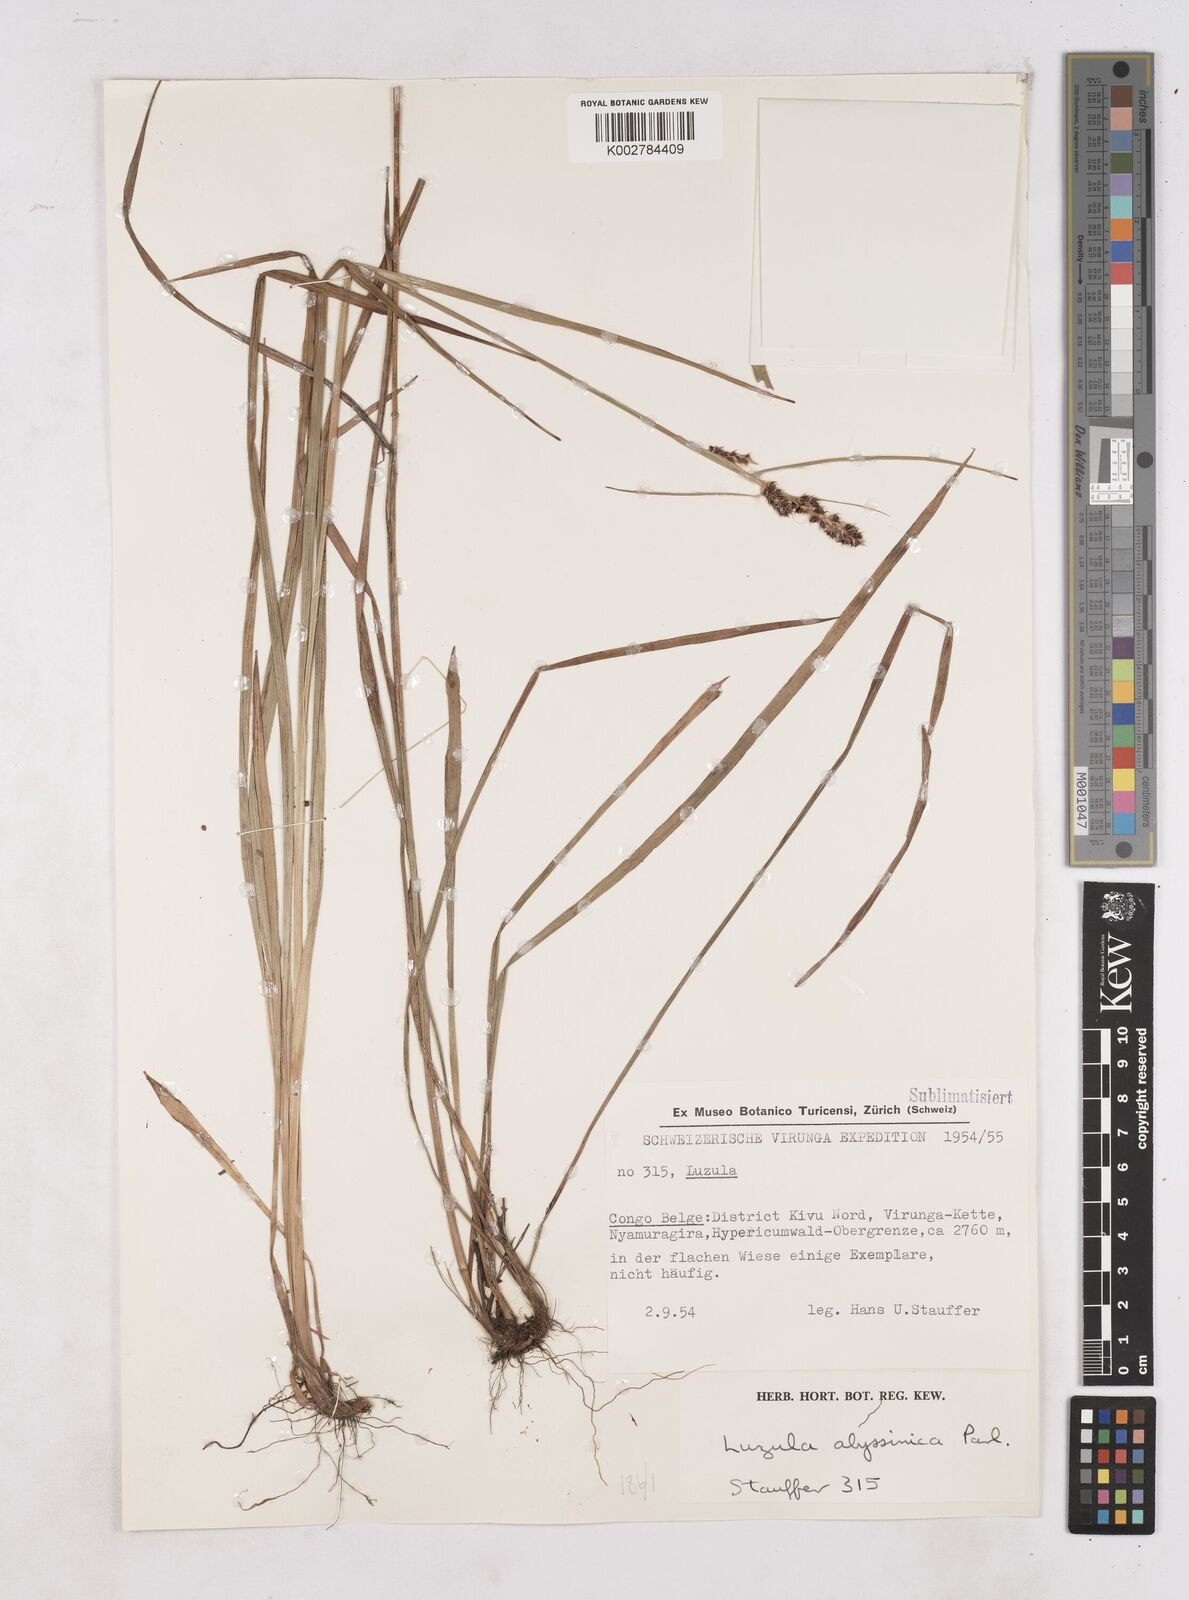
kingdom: Plantae
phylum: Tracheophyta
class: Liliopsida
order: Poales
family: Juncaceae
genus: Luzula
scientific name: Luzula abyssinica
